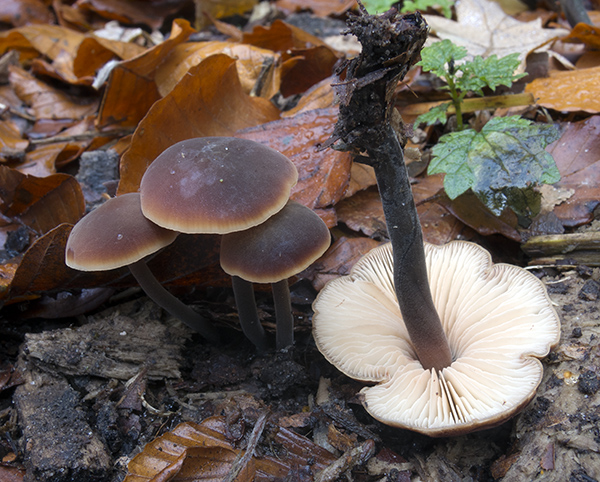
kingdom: Fungi
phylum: Basidiomycota
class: Agaricomycetes
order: Agaricales
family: Macrocystidiaceae
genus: Macrocystidia
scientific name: Macrocystidia cucumis
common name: agurkehat
